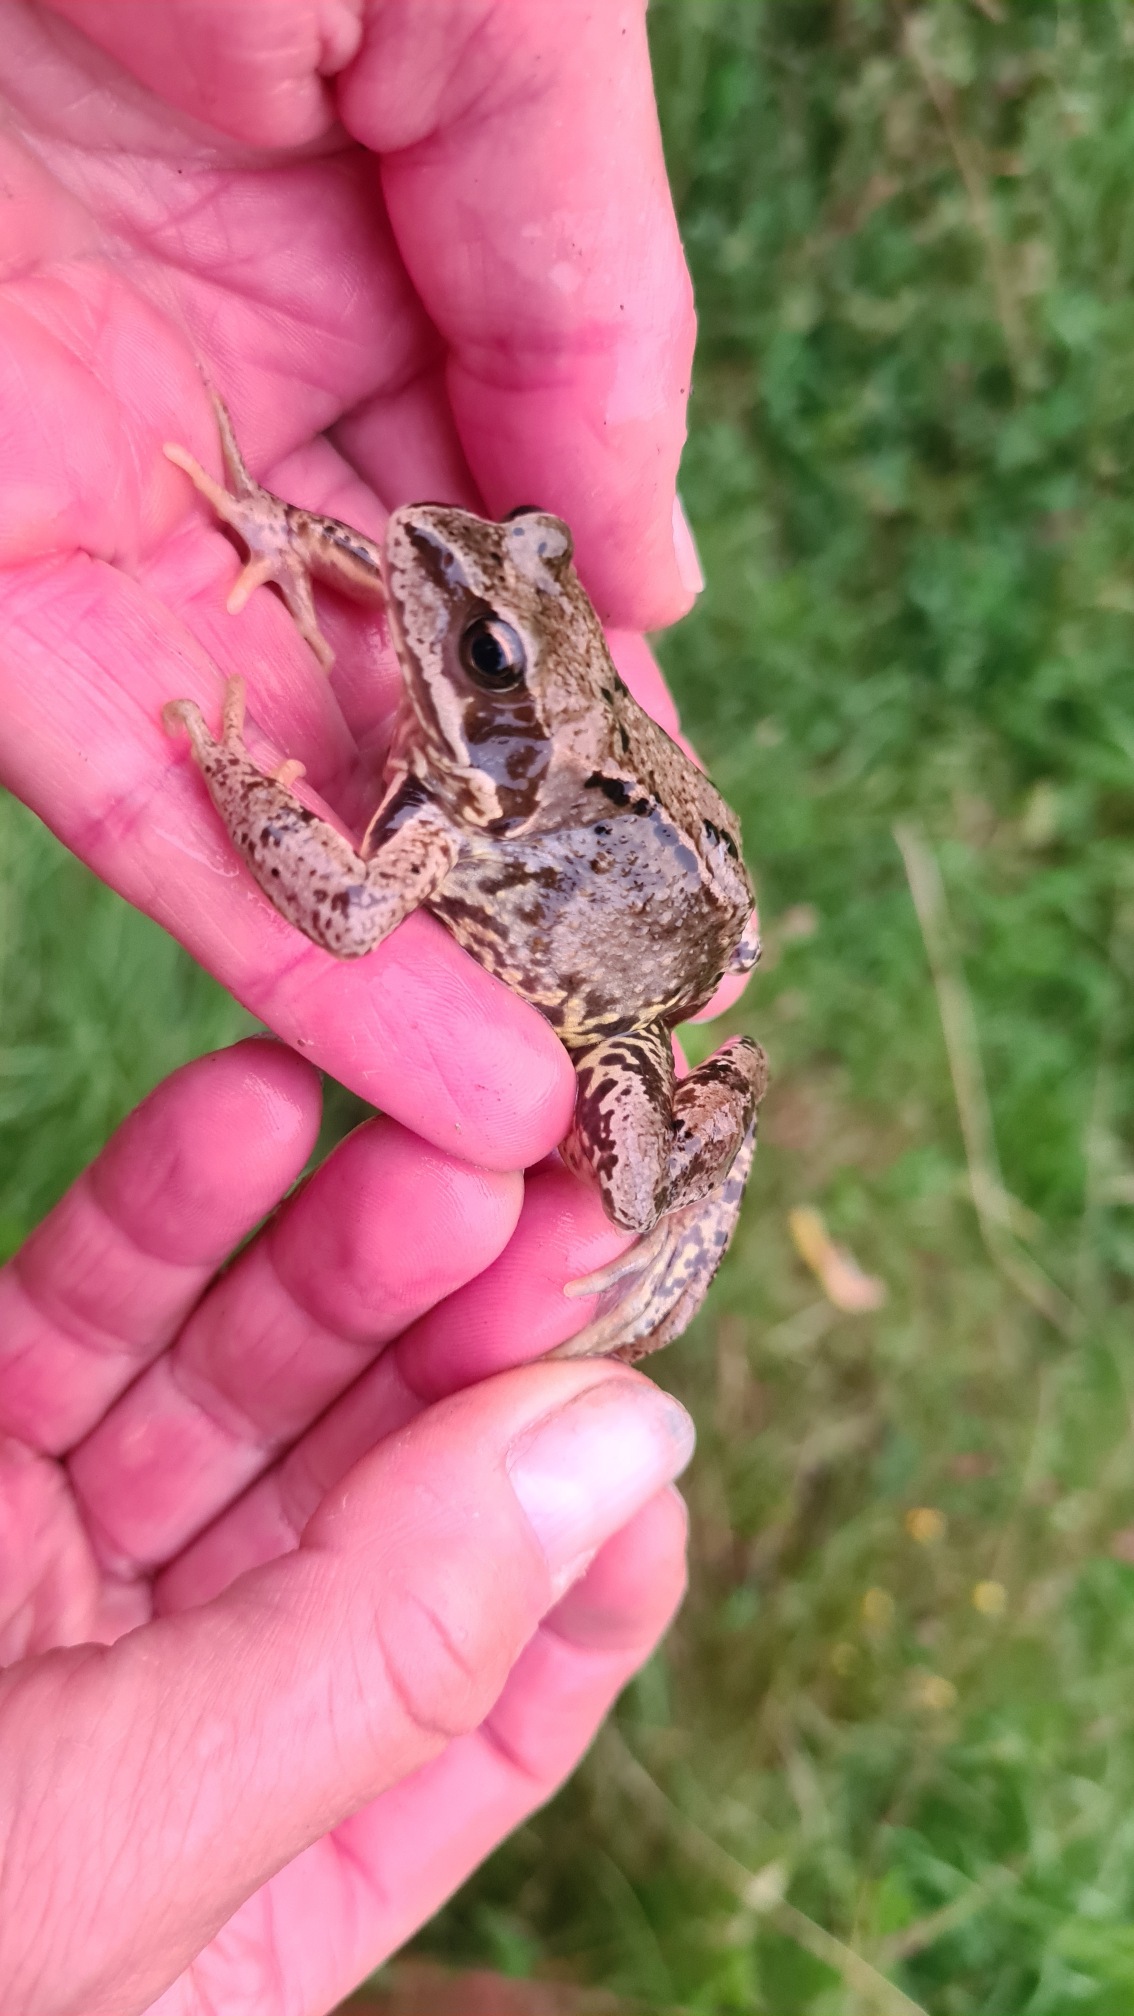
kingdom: Animalia
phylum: Chordata
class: Amphibia
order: Anura
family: Ranidae
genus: Rana
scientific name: Rana temporaria
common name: Butsnudet frø
